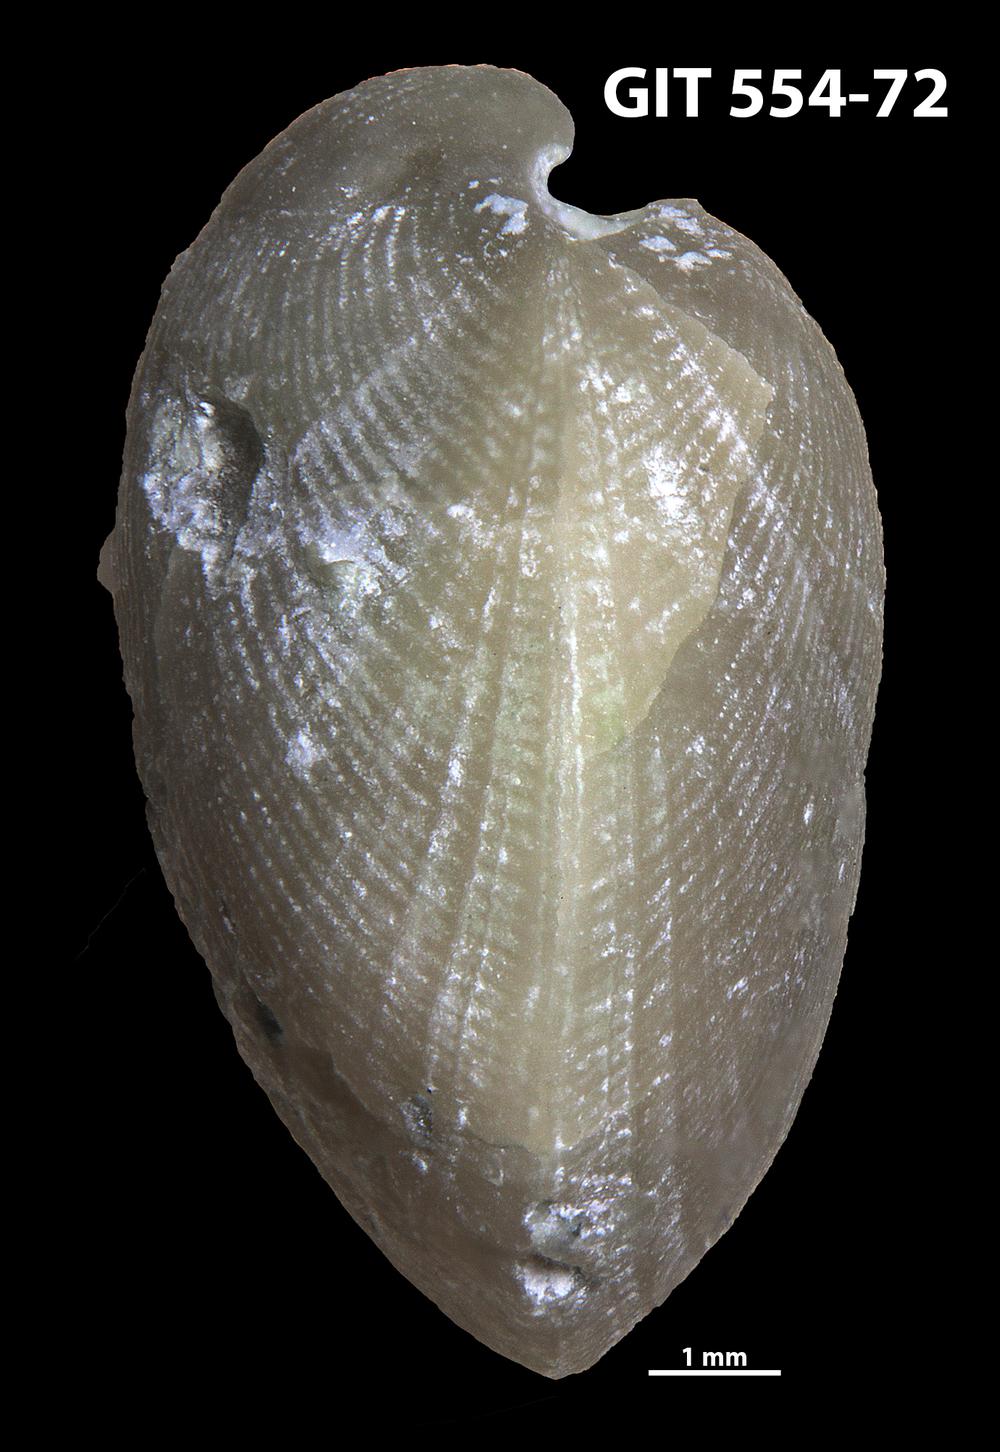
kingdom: Animalia
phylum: Brachiopoda
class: Rhynchonellata
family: Linoporellidae
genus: Linoporella
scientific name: Linoporella Orthis punctata
